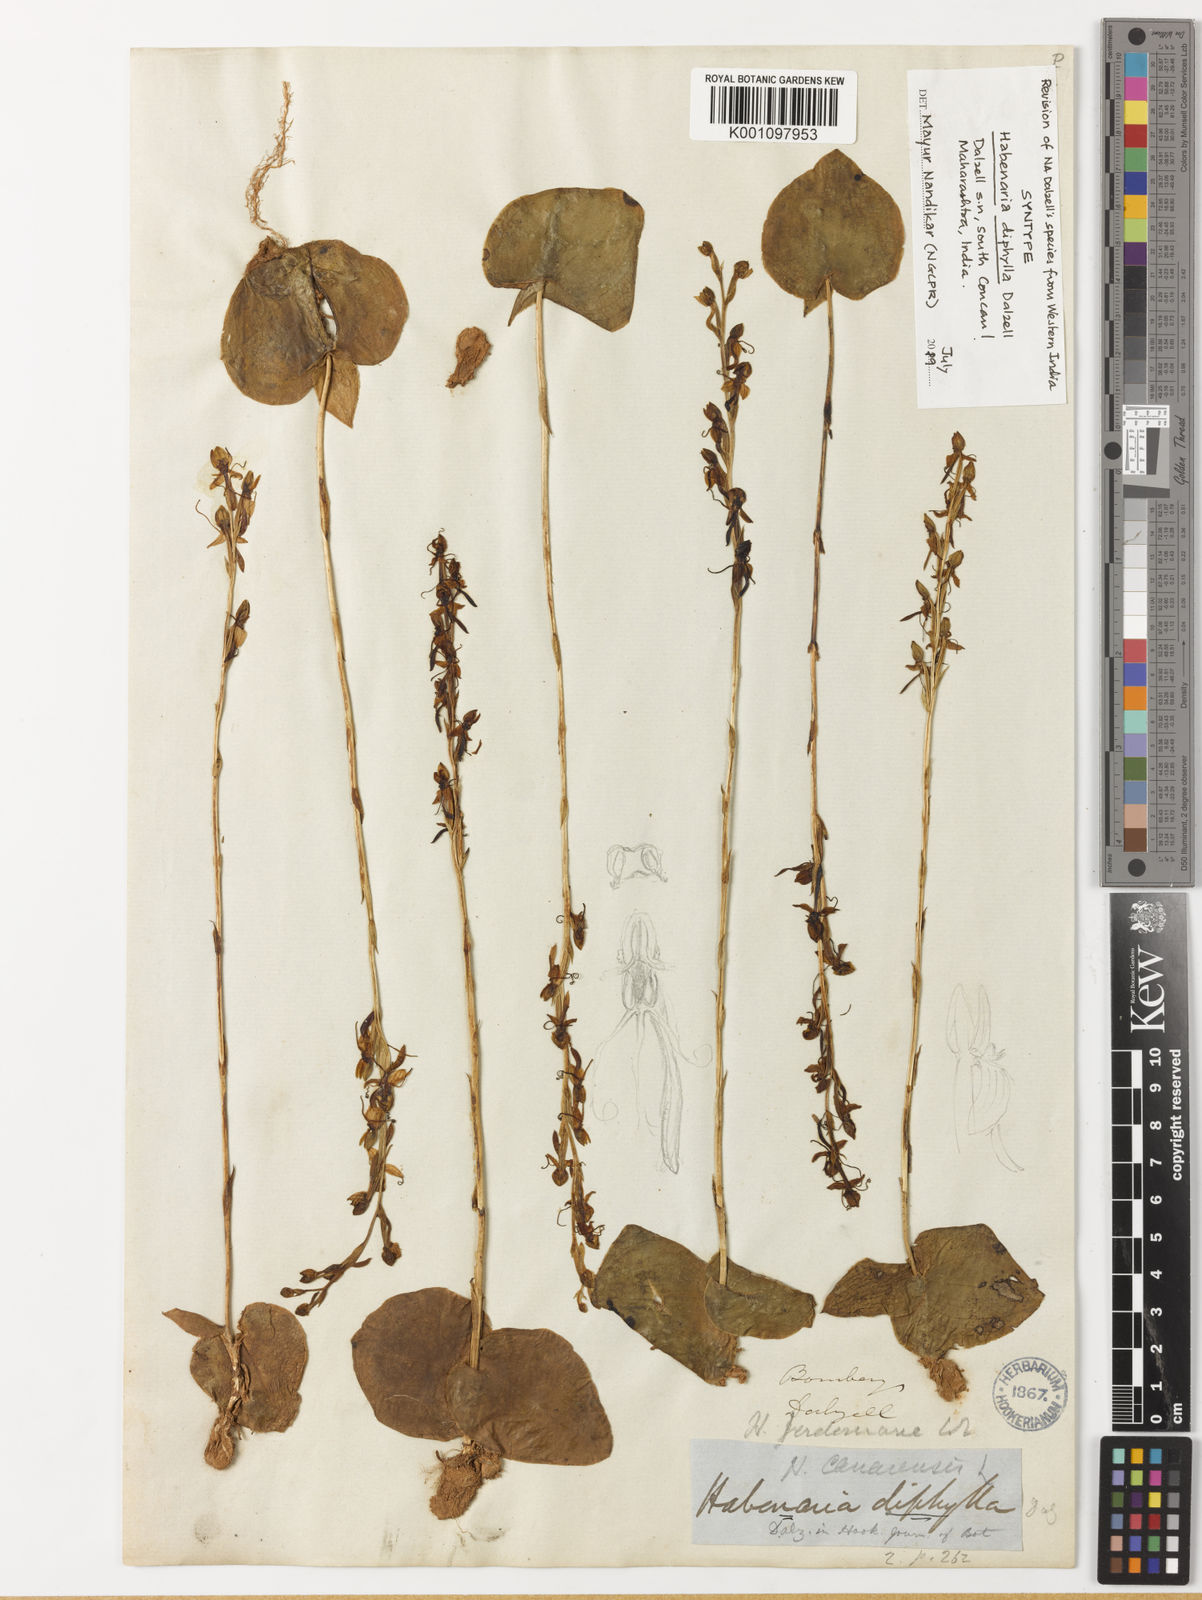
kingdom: Plantae
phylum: Tracheophyta
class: Liliopsida
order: Asparagales
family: Orchidaceae
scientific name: Orchidaceae
